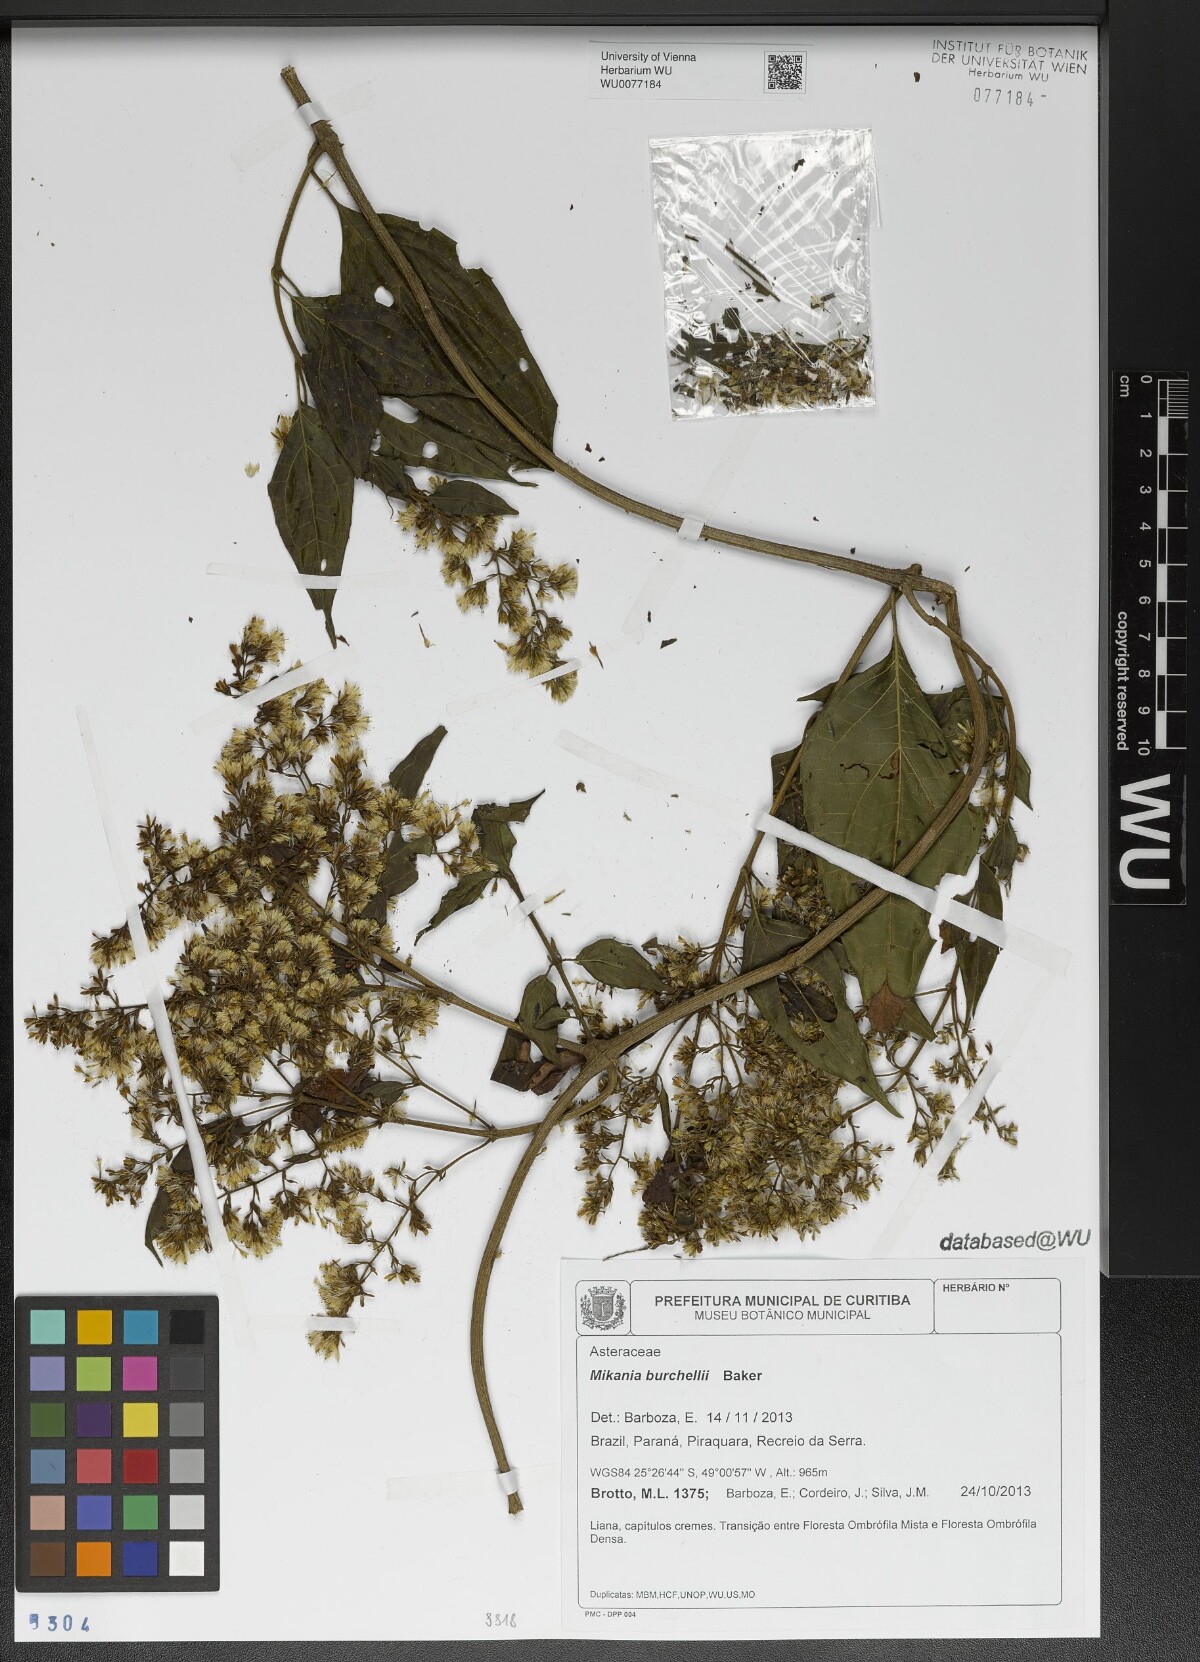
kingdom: Plantae
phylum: Tracheophyta
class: Magnoliopsida
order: Asterales
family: Asteraceae
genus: Mikania
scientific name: Mikania burchellii
